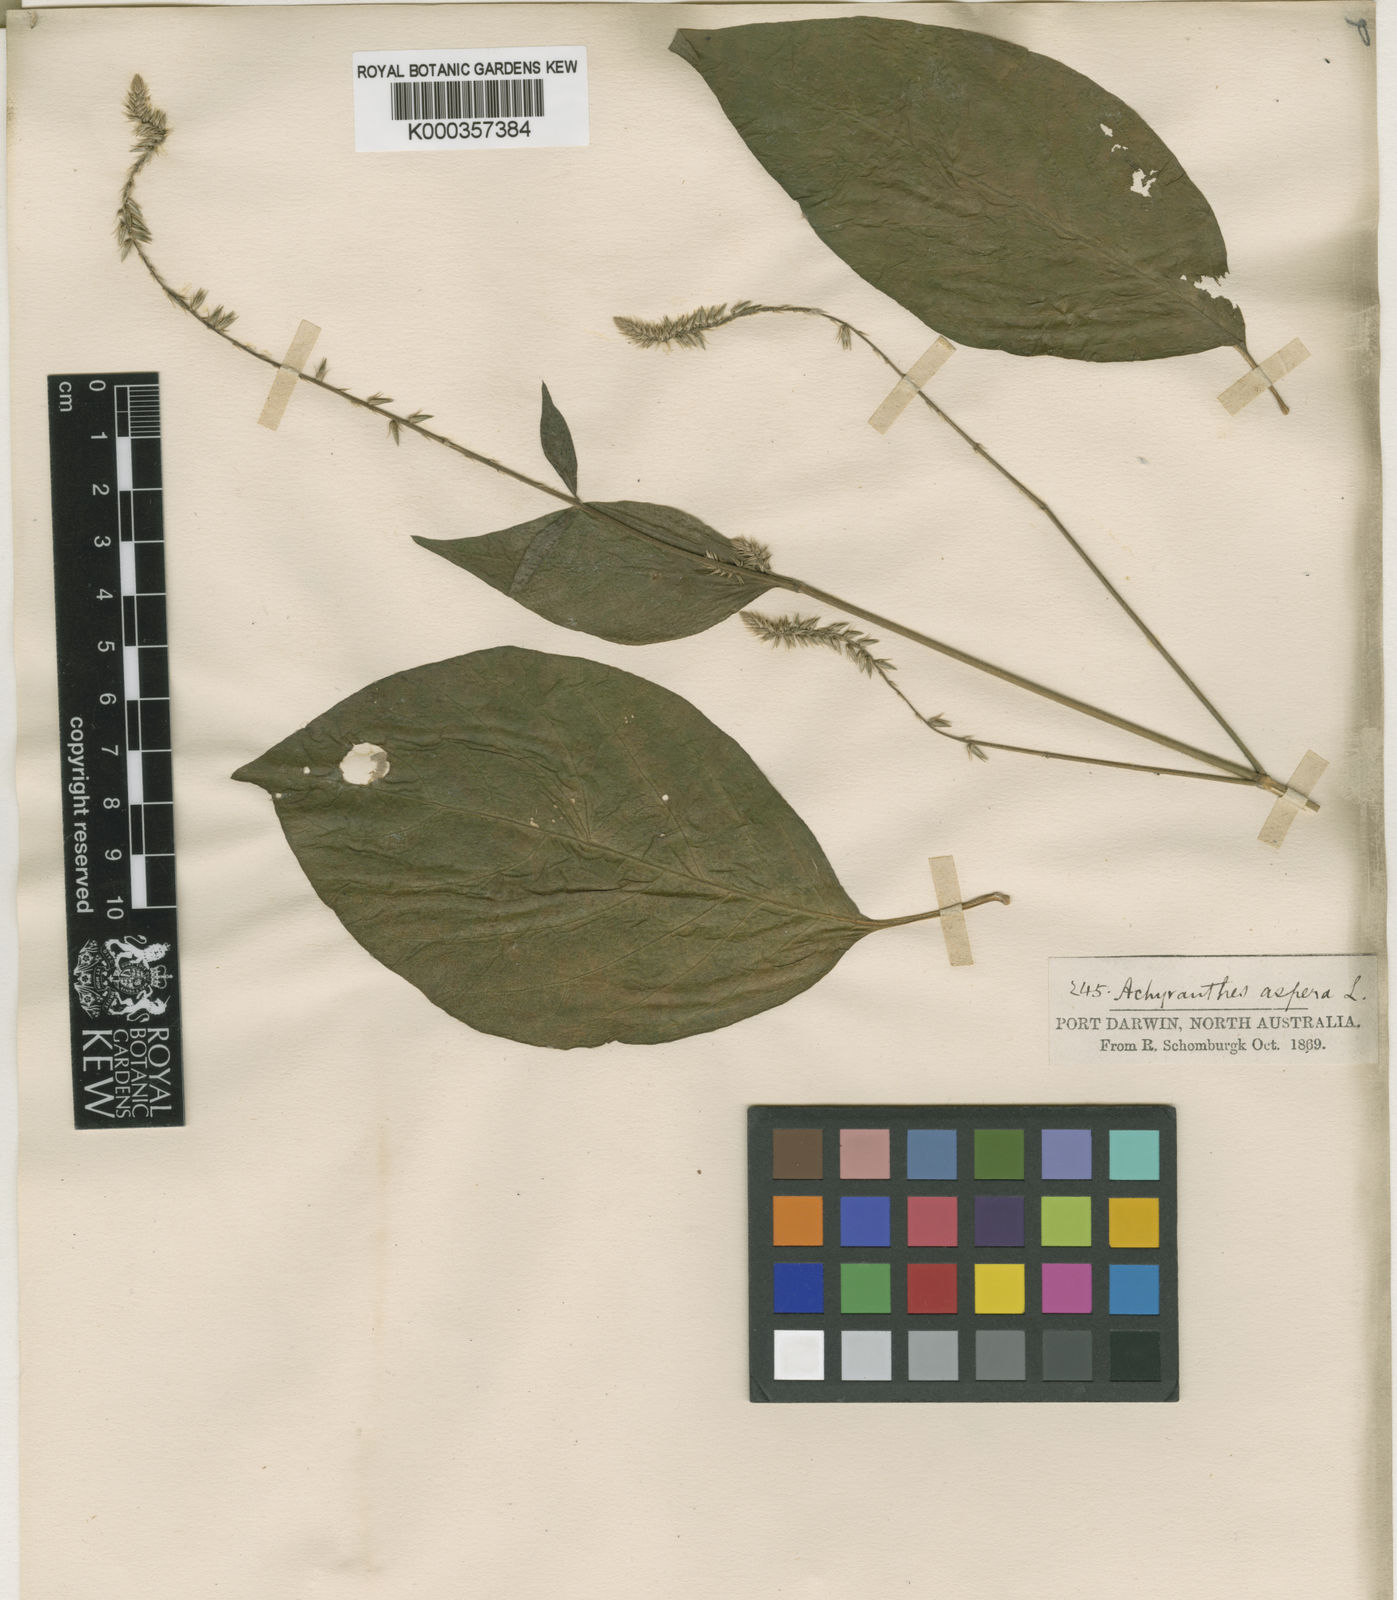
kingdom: Plantae
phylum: Tracheophyta
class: Magnoliopsida
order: Caryophyllales
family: Amaranthaceae
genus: Achyranthes
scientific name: Achyranthes aspera
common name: Devil's horsewhip
